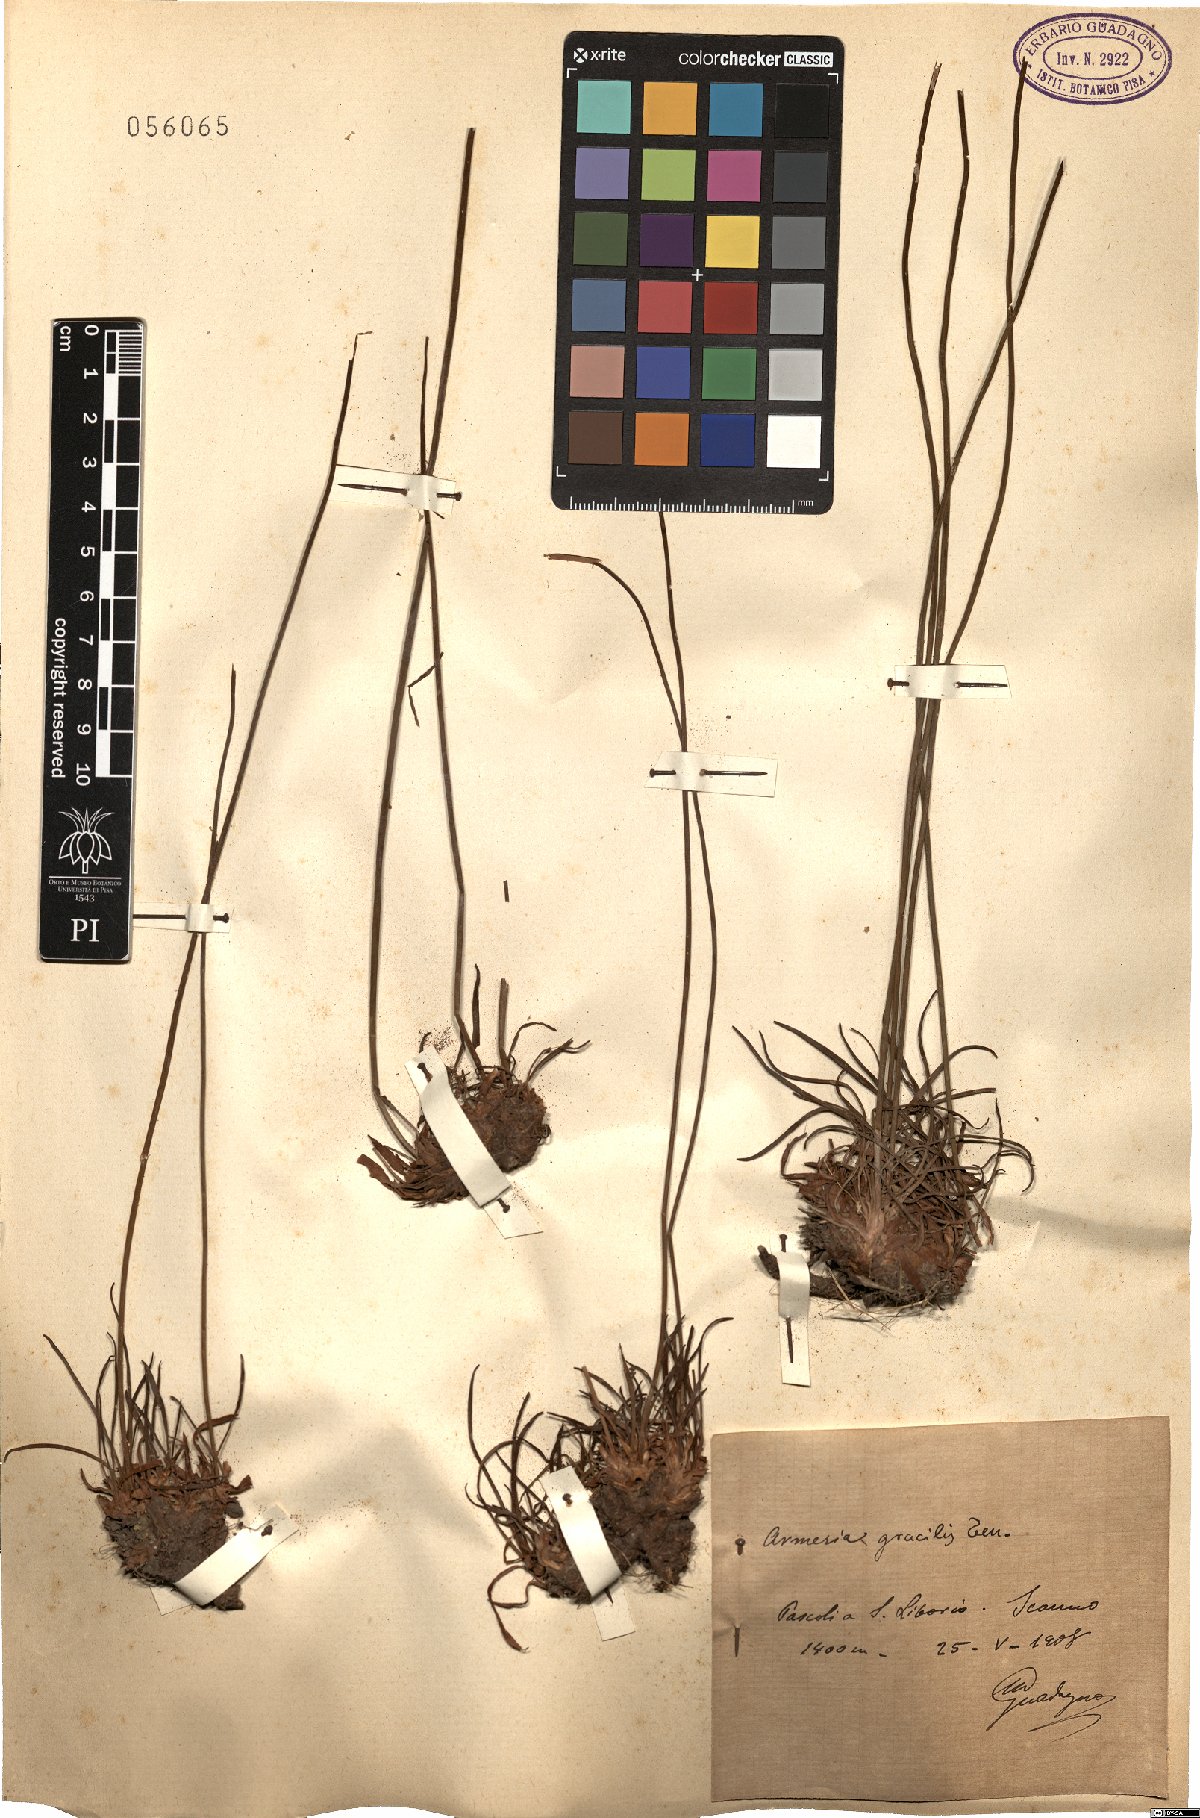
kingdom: Plantae
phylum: Tracheophyta
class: Magnoliopsida
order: Caryophyllales
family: Plumbaginaceae
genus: Armeria
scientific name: Armeria nebrodensis
